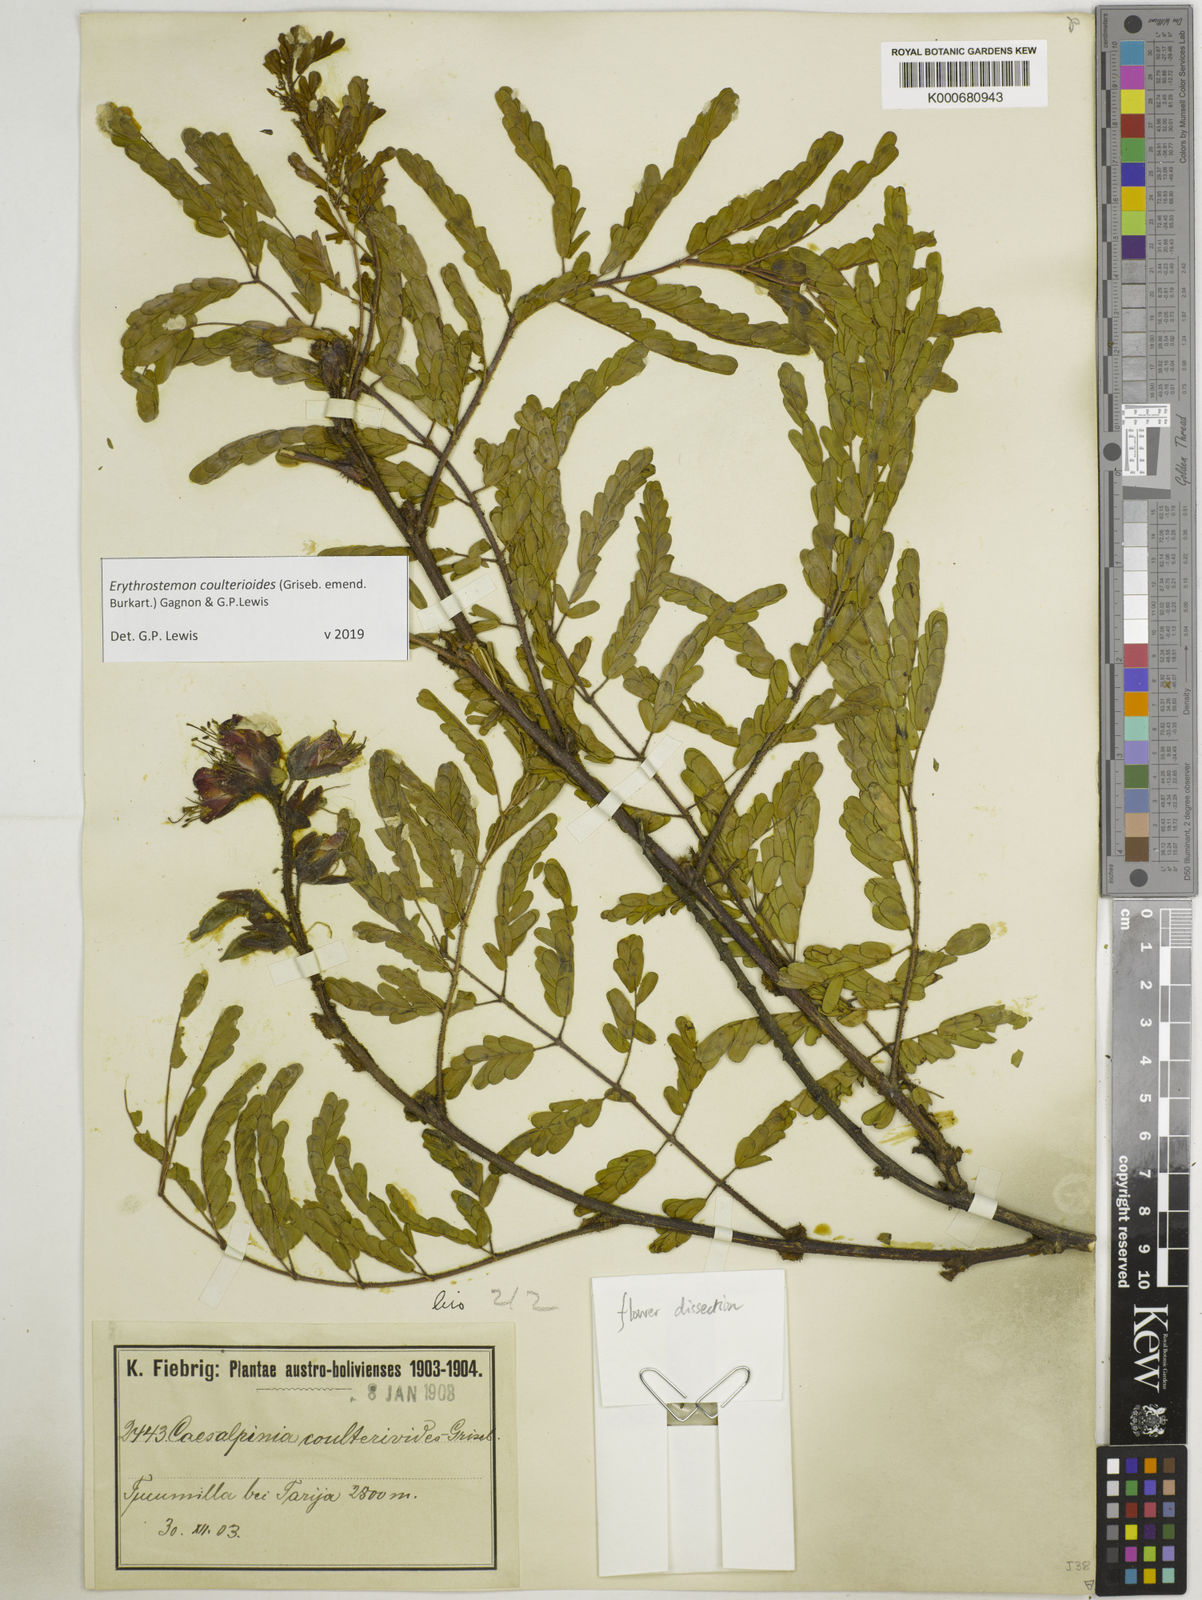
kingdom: Plantae
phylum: Tracheophyta
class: Magnoliopsida
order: Fabales
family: Fabaceae
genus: Caesalpinia
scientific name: Caesalpinia
